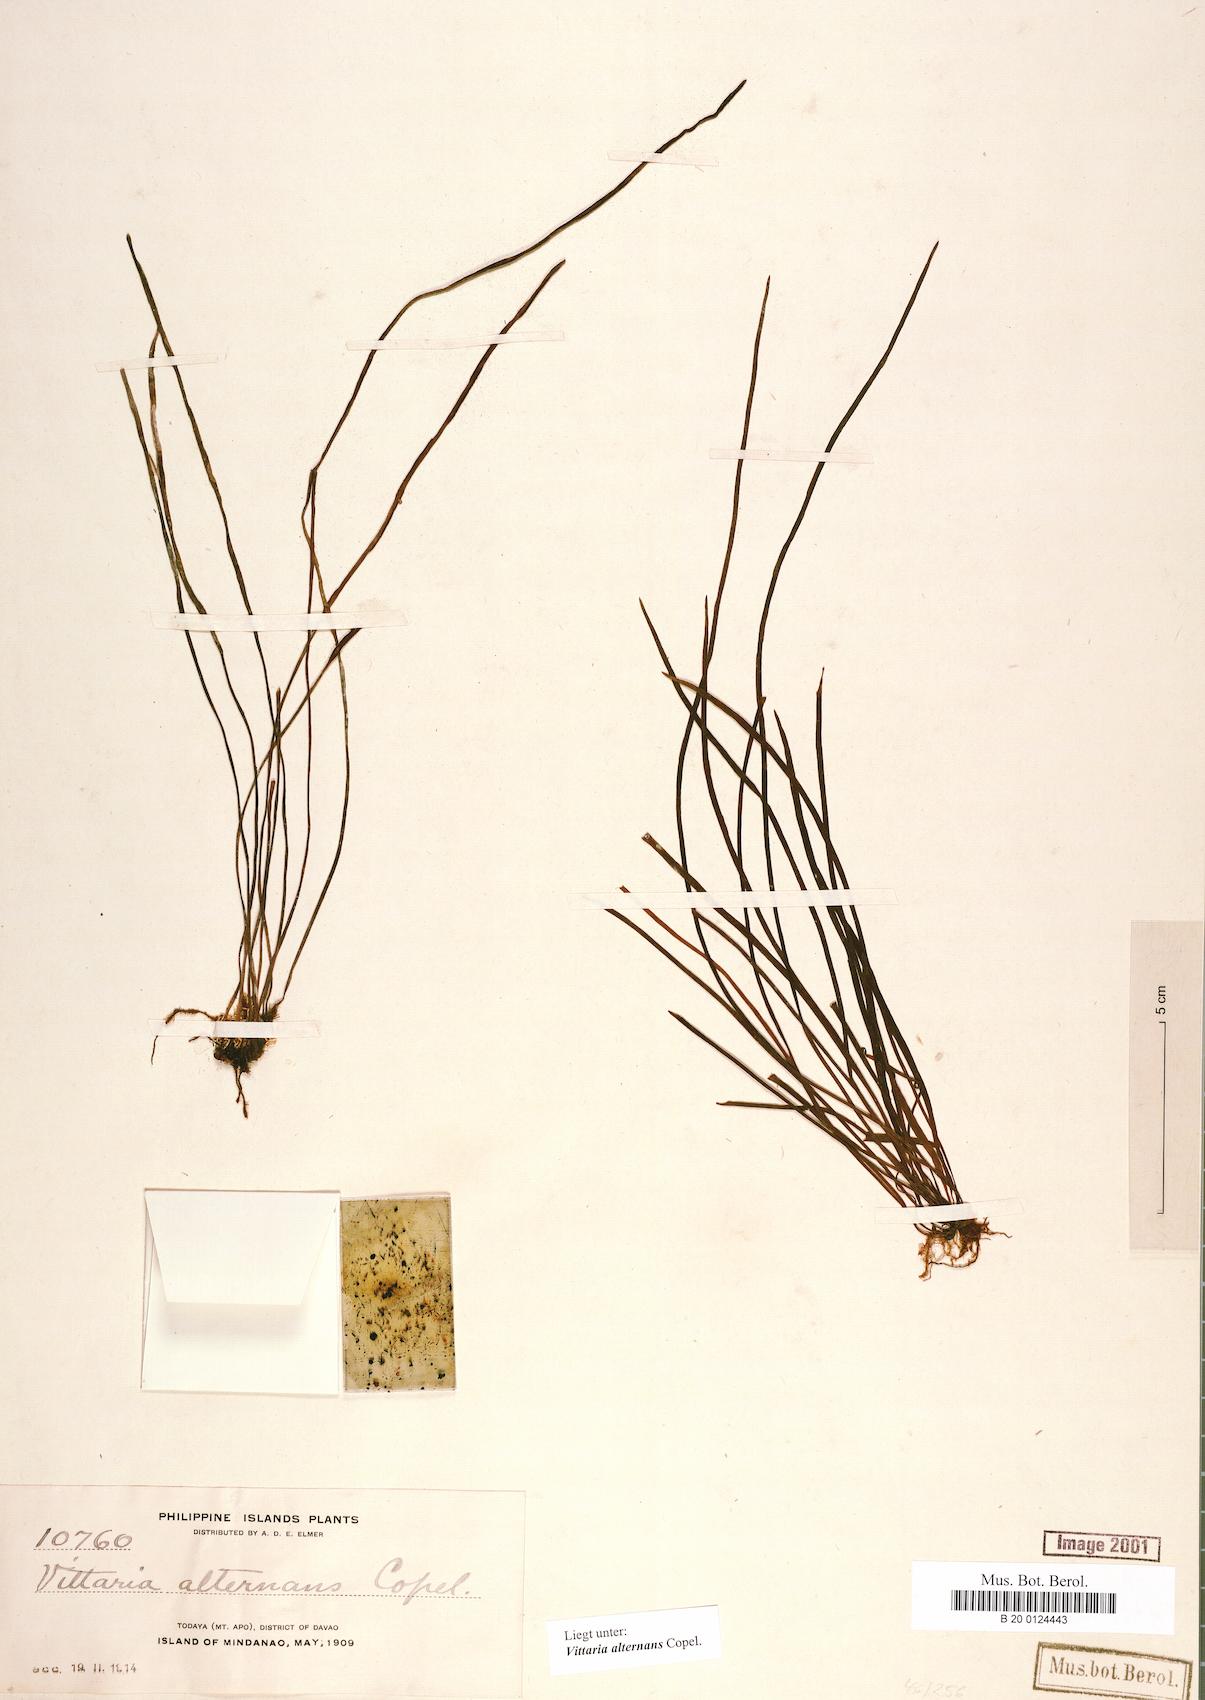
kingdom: Plantae
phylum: Tracheophyta
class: Polypodiopsida
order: Polypodiales
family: Pteridaceae
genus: Haplopteris
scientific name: Haplopteris alternans
